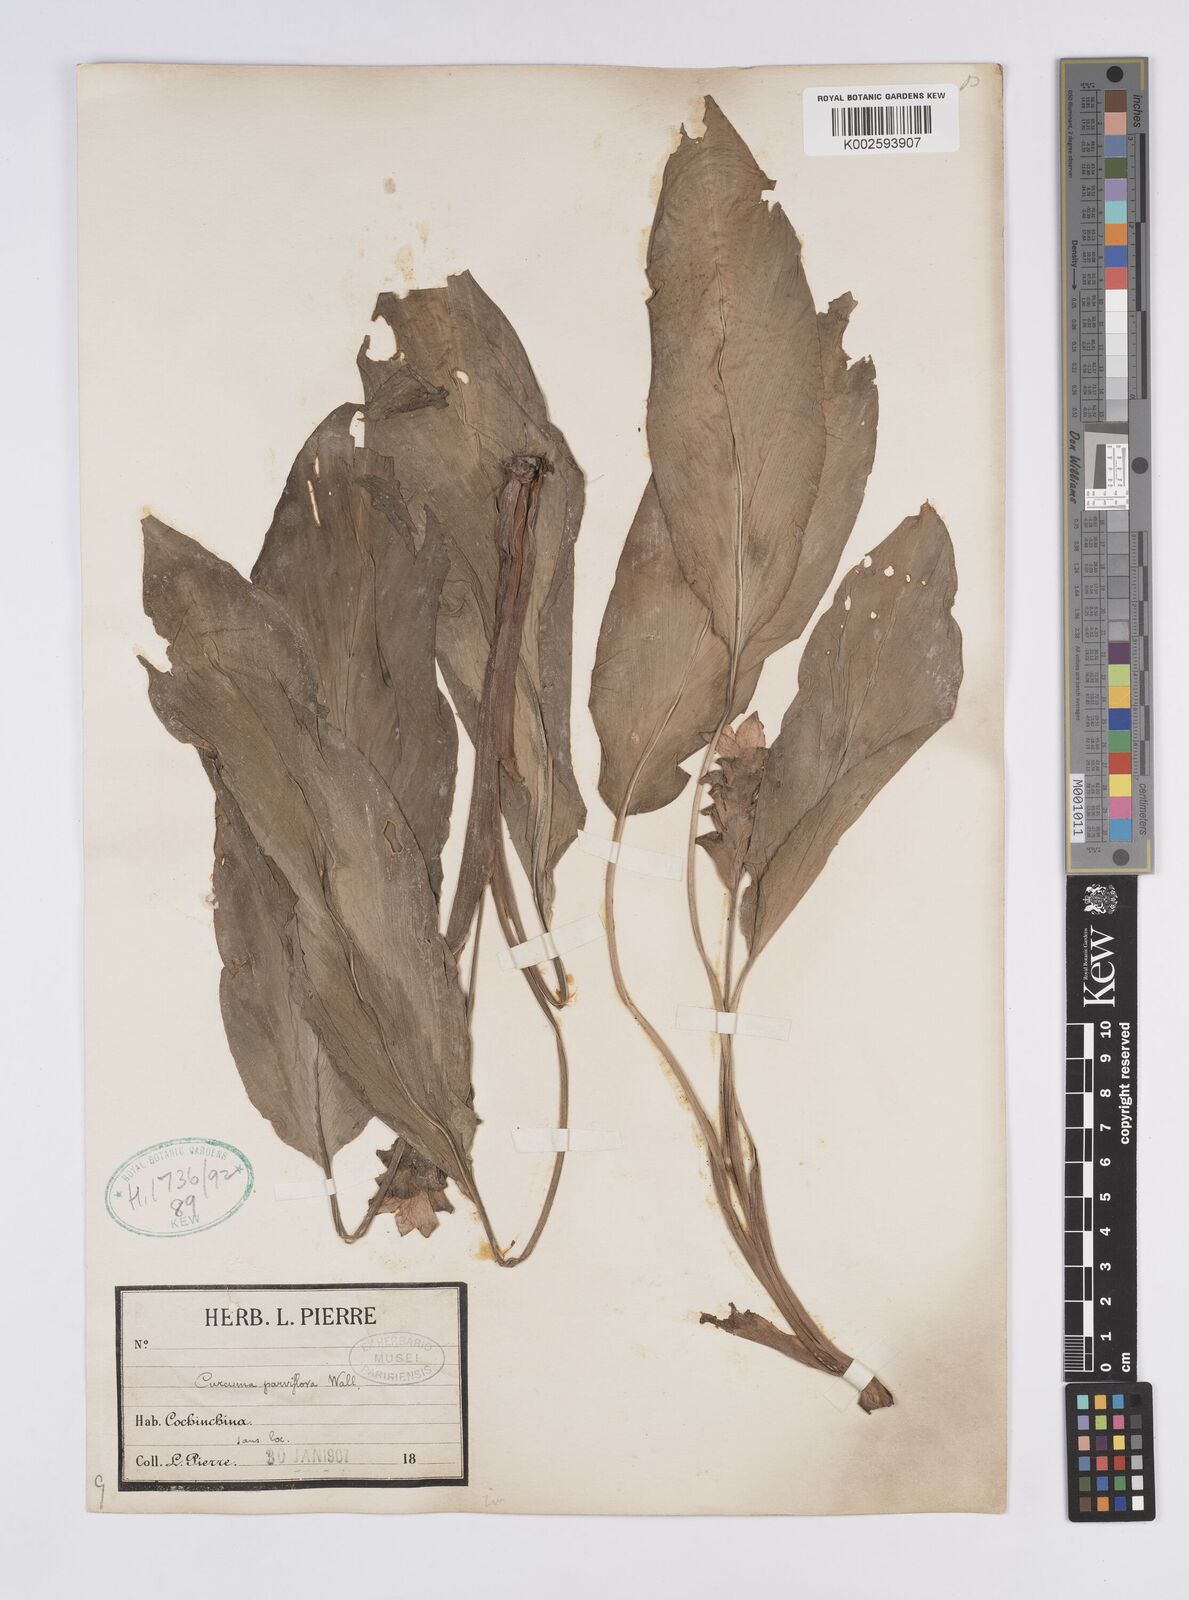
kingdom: Plantae
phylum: Tracheophyta
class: Liliopsida
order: Zingiberales
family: Zingiberaceae
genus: Curcuma
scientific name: Curcuma parviflora
